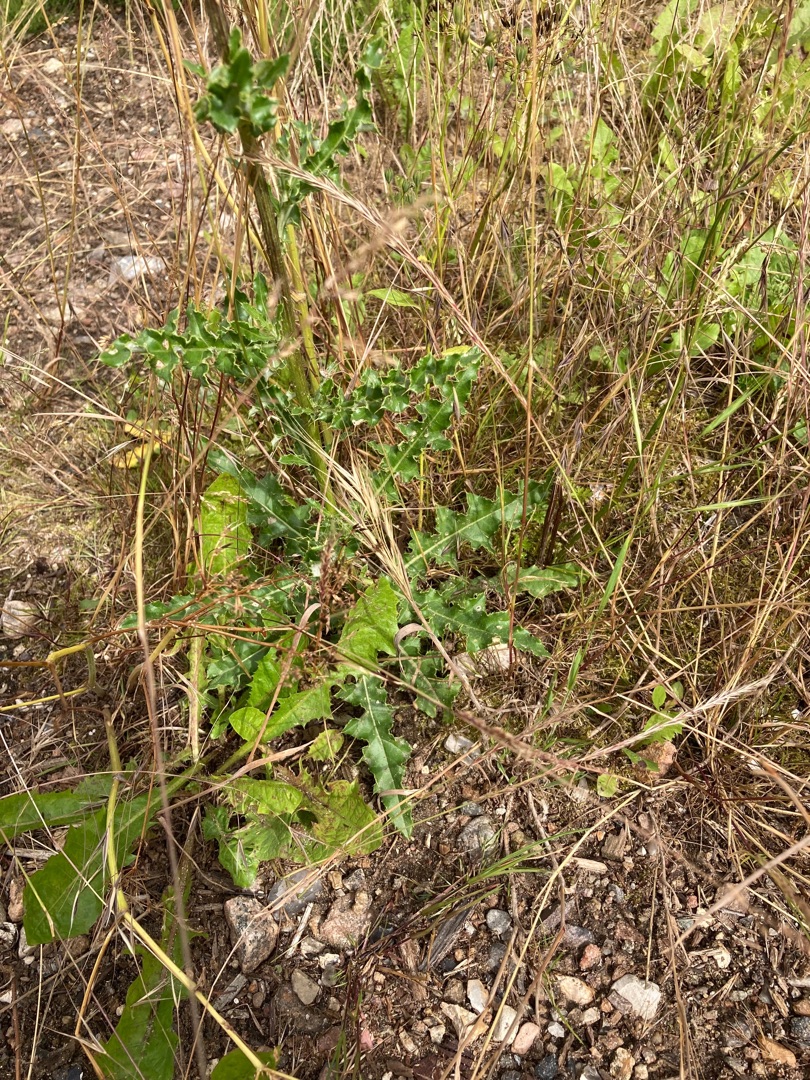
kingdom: Plantae
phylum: Tracheophyta
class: Magnoliopsida
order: Asterales
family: Asteraceae
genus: Cirsium
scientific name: Cirsium arvense
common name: Ager-tidsel
